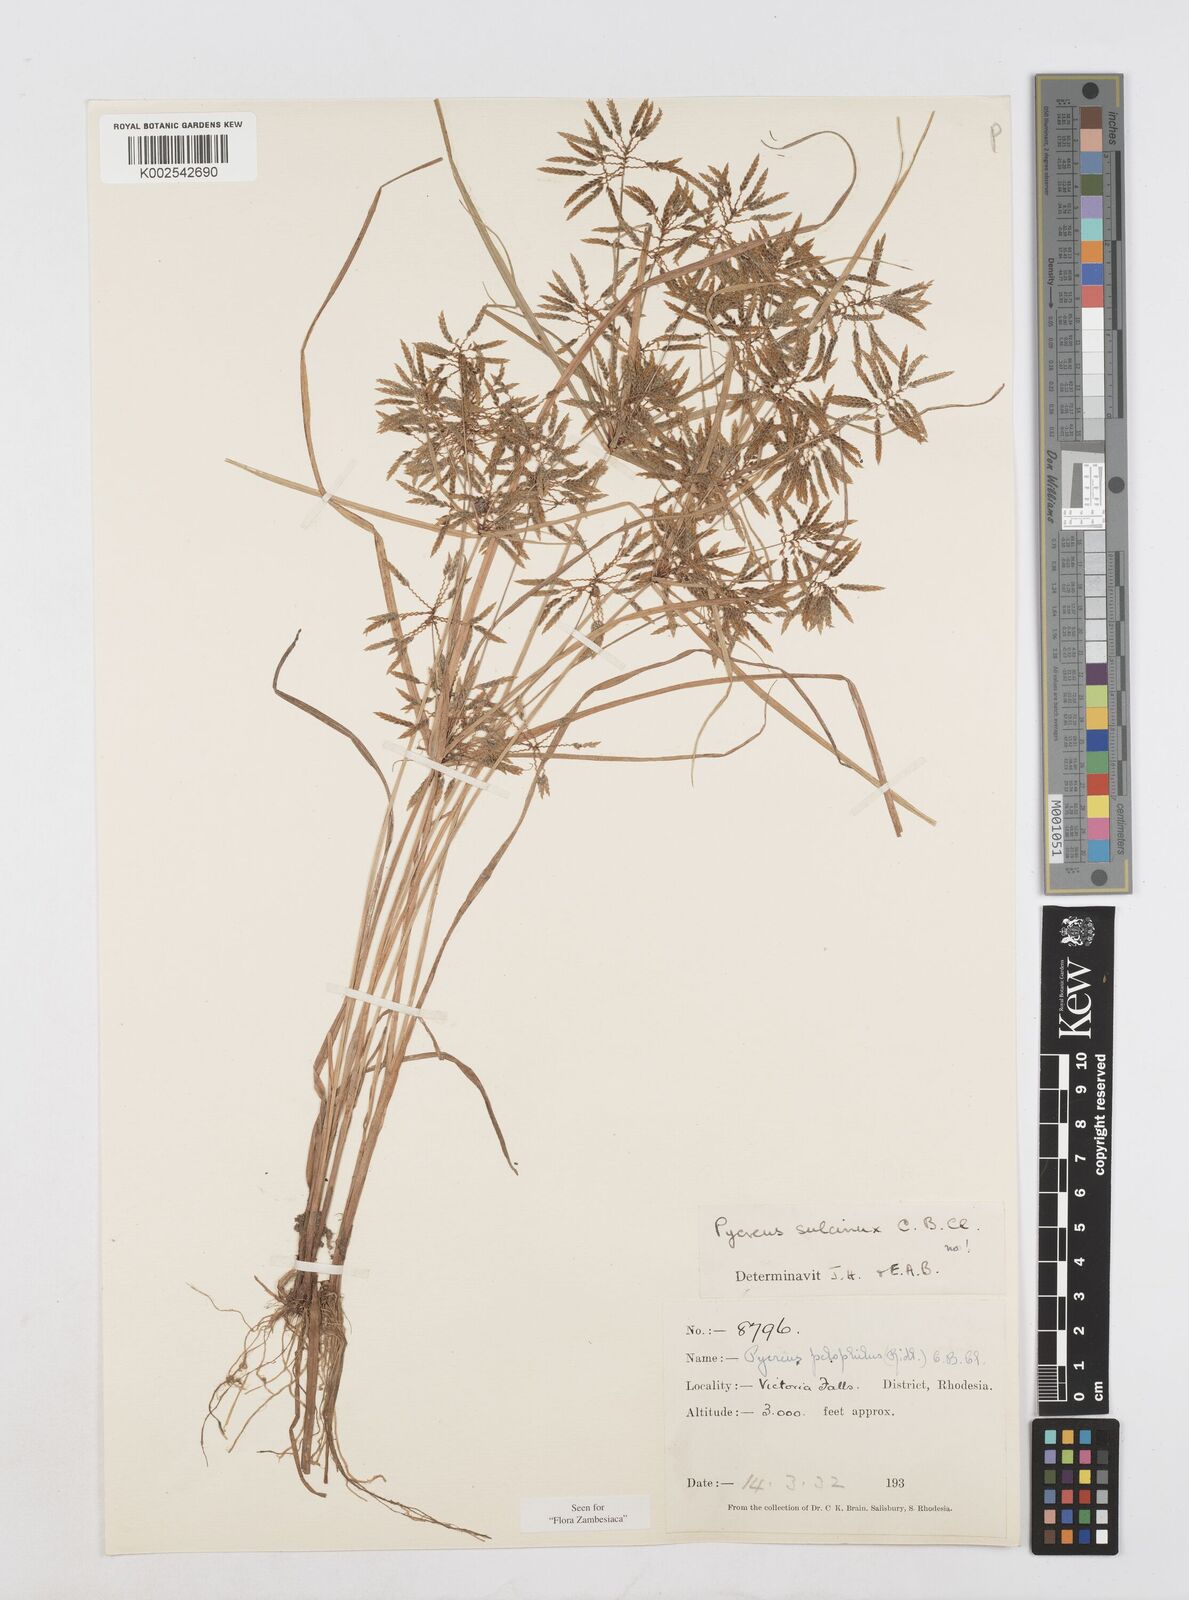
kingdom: Plantae
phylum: Tracheophyta
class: Liliopsida
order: Poales
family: Cyperaceae
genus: Cyperus
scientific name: Cyperus pelophilus
